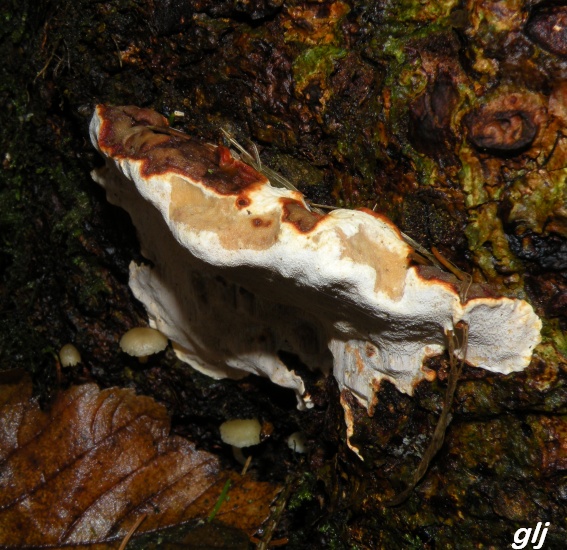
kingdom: Fungi
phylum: Basidiomycota
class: Agaricomycetes
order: Russulales
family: Bondarzewiaceae
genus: Heterobasidion
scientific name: Heterobasidion annosum
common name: almindelig rodfordærver
